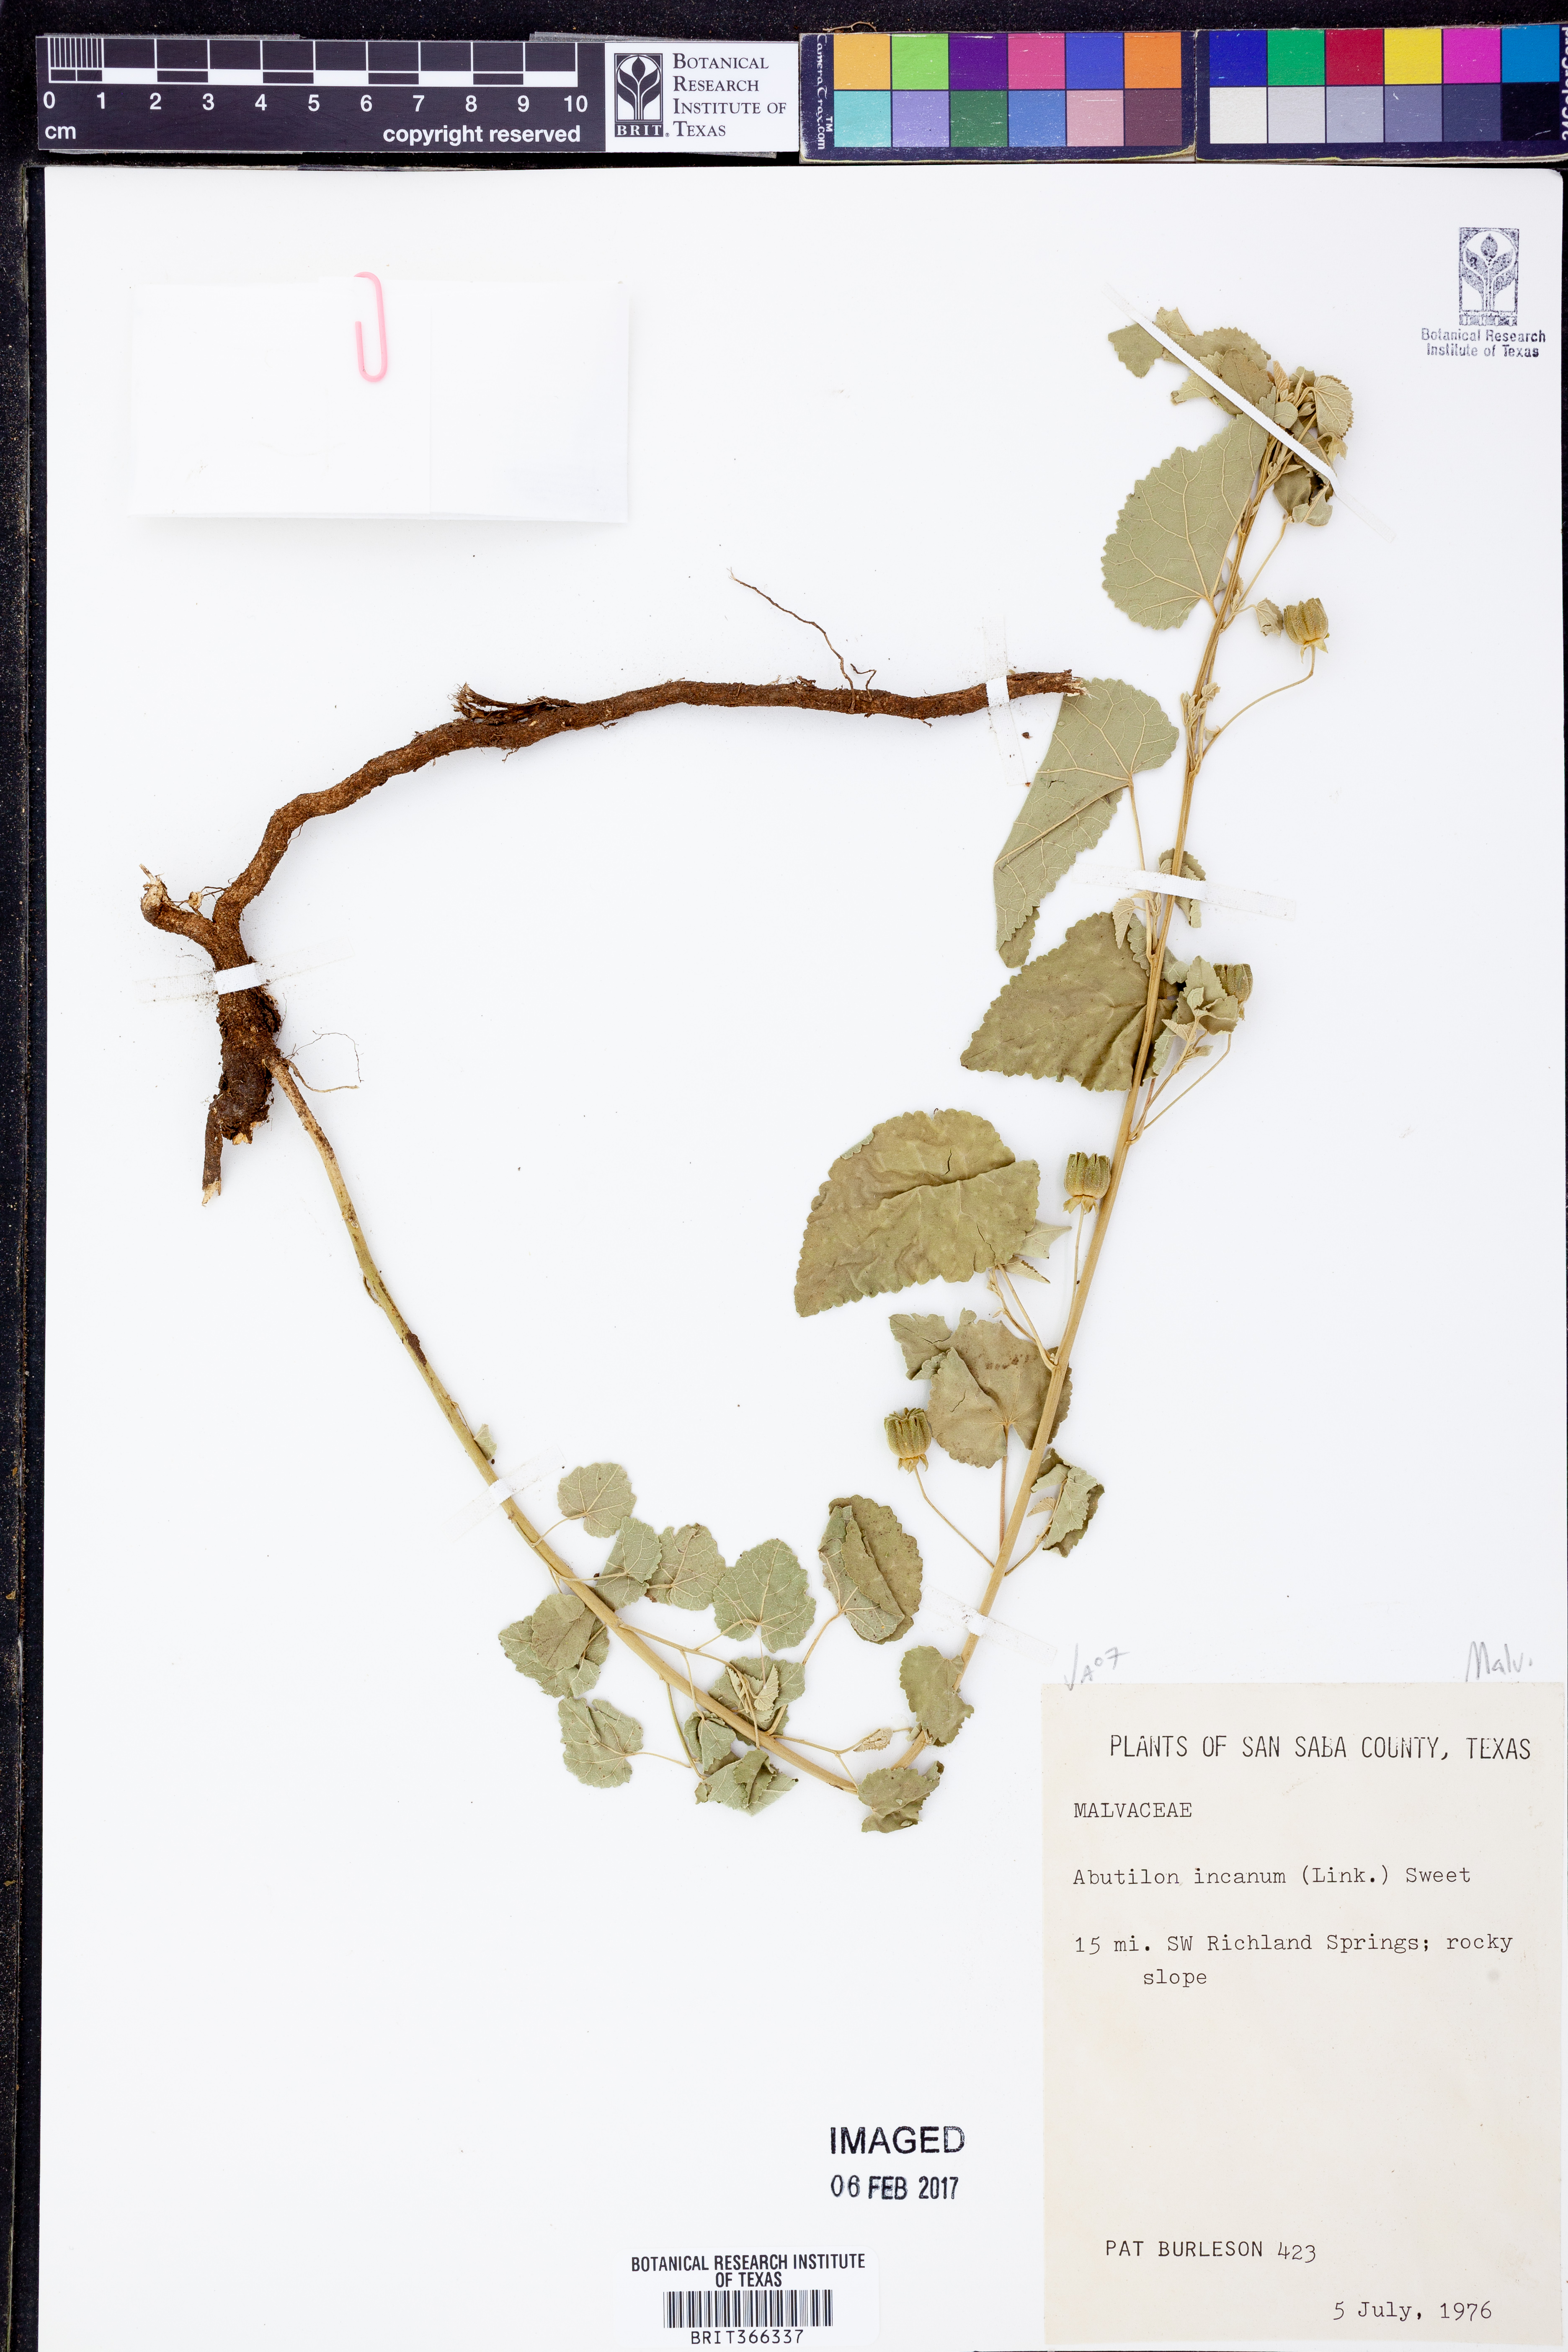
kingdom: Plantae
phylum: Tracheophyta
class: Magnoliopsida
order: Malvales
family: Malvaceae
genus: Abutilon
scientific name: Abutilon incanum
